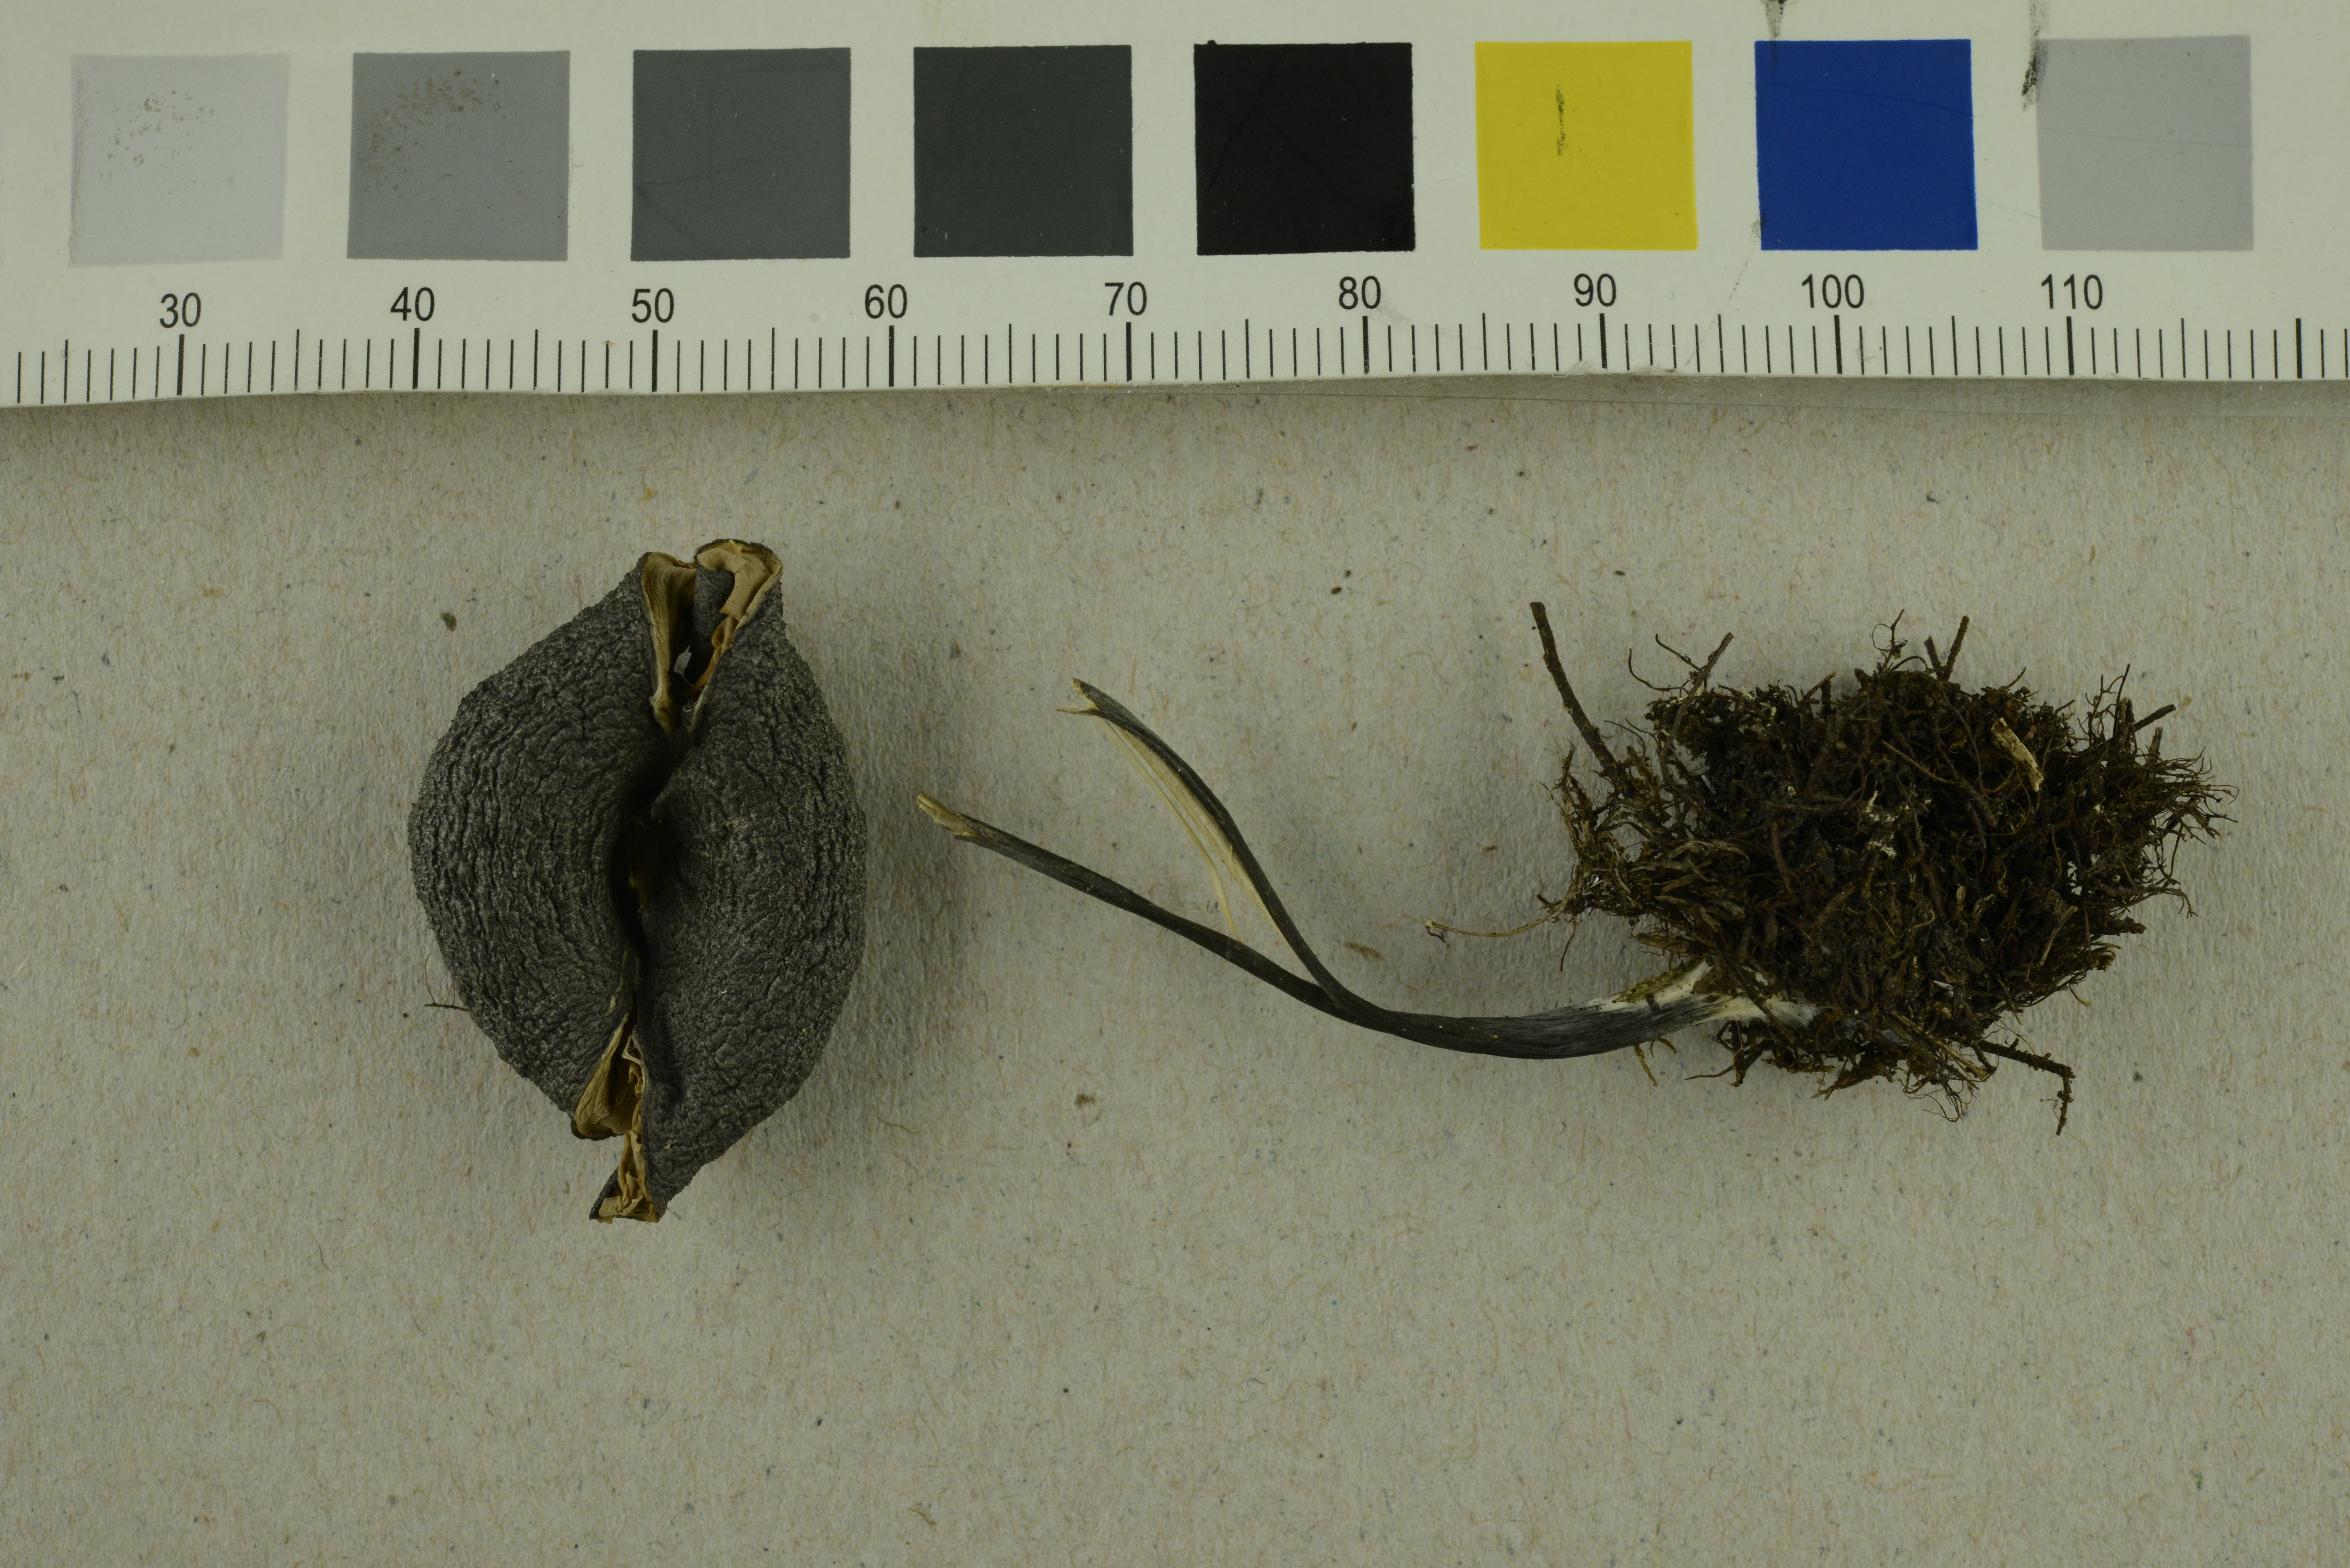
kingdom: Fungi
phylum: Basidiomycota
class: Agaricomycetes
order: Agaricales
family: Entolomataceae
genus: Entoloma
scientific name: Entoloma mougeotii
